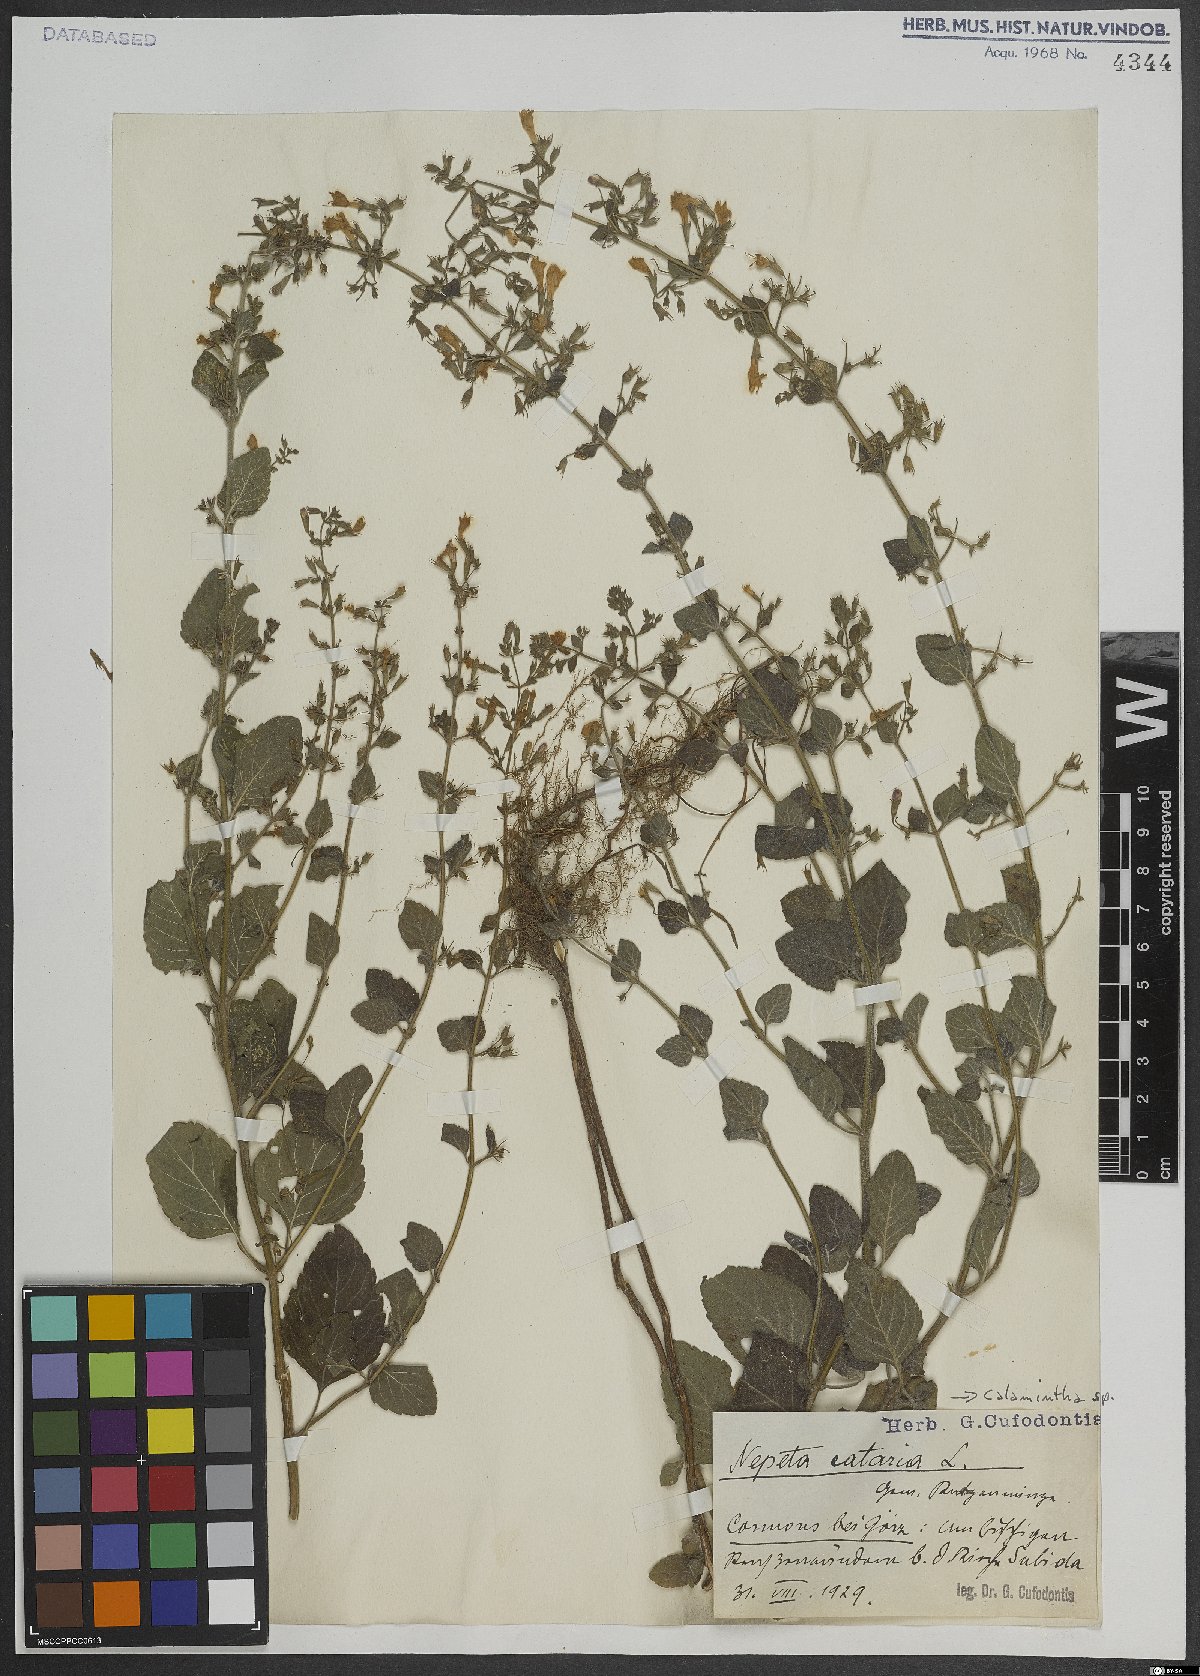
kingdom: Plantae
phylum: Tracheophyta
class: Magnoliopsida
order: Lamiales
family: Lamiaceae
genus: Calamintha
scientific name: Calamintha
